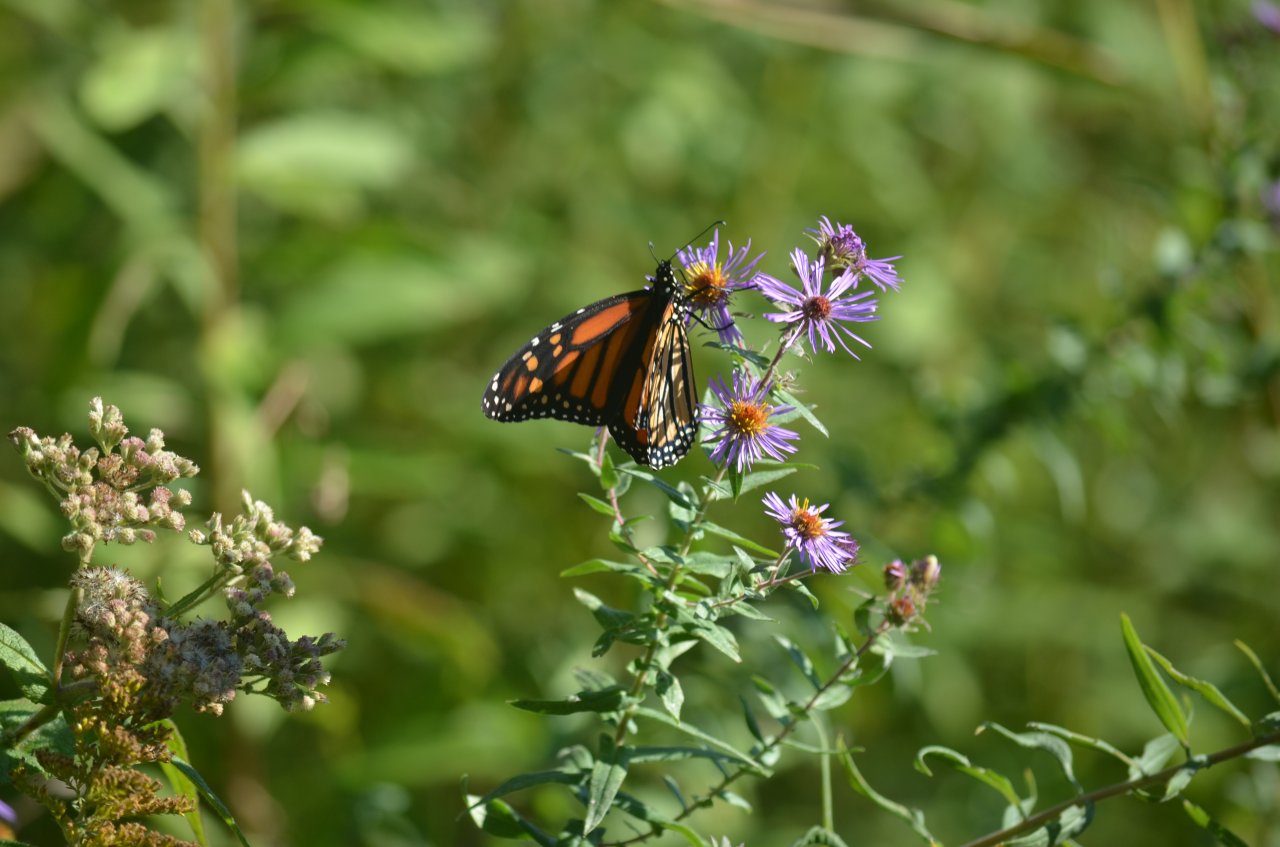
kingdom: Animalia
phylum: Arthropoda
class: Insecta
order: Lepidoptera
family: Nymphalidae
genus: Danaus
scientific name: Danaus plexippus
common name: Monarch
